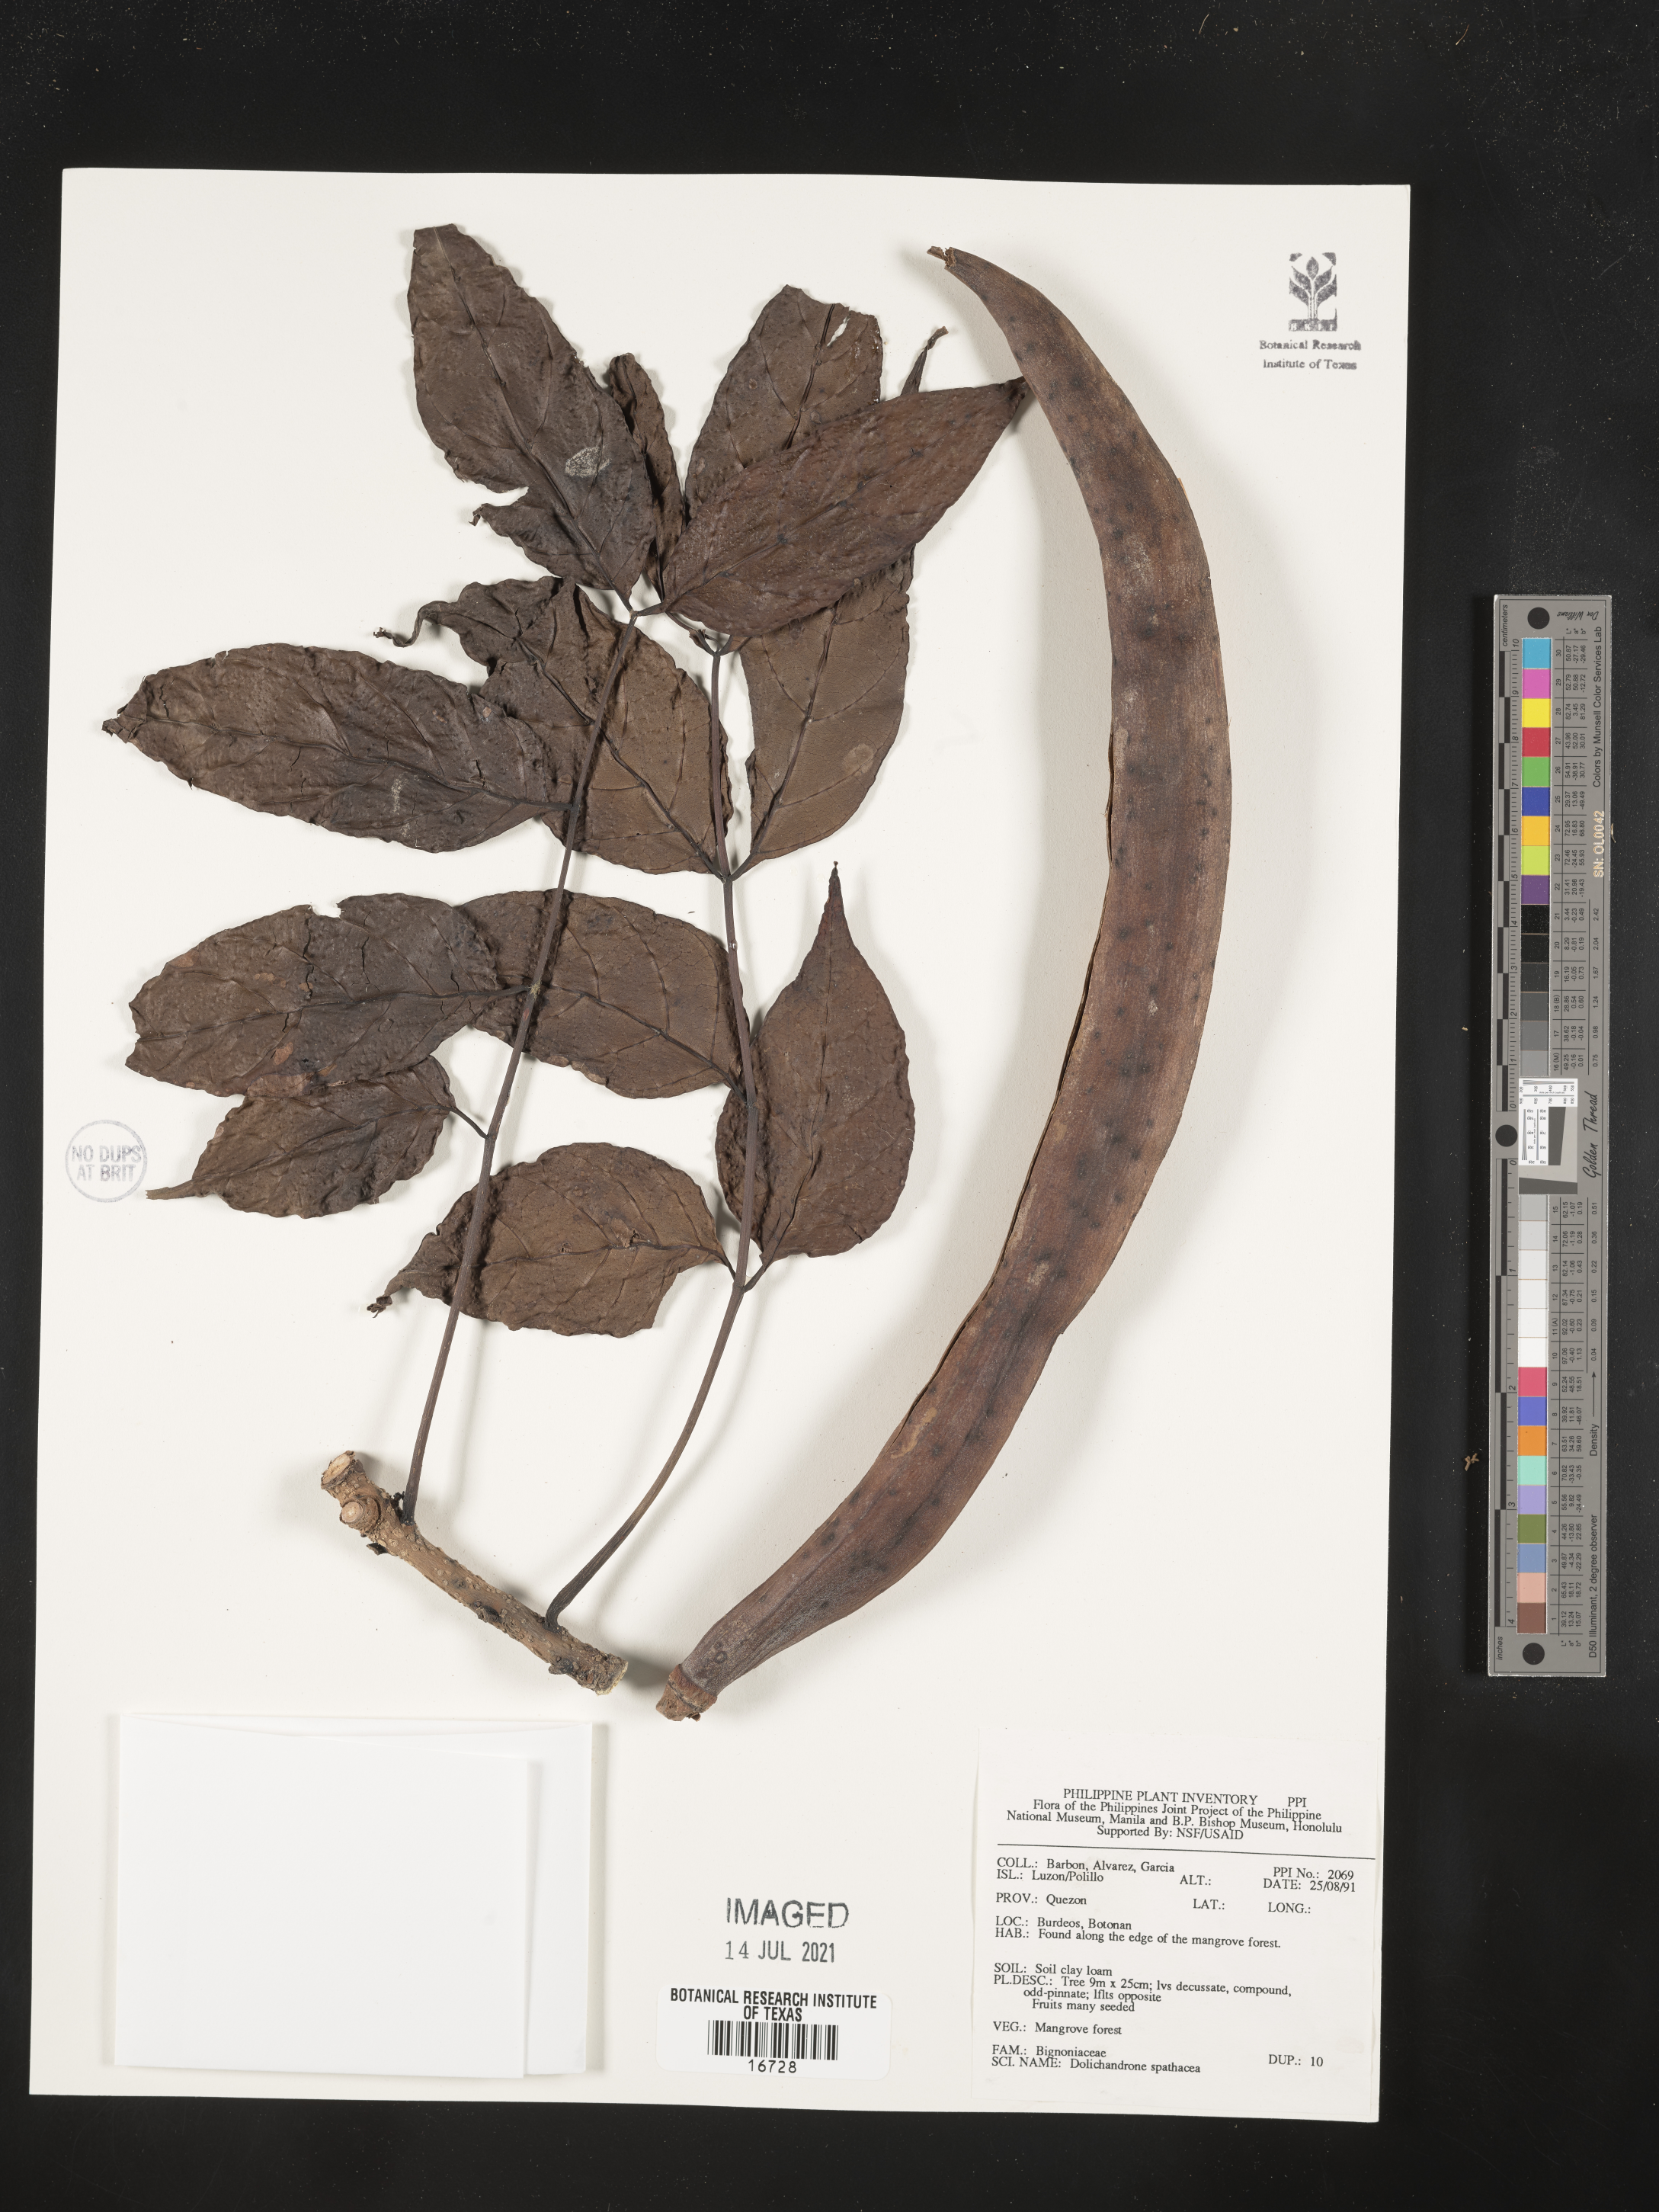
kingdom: Plantae
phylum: Tracheophyta
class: Magnoliopsida
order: Lamiales
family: Bignoniaceae
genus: Dolichandrone
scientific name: Dolichandrone spathacea
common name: Mangrove trumpet-tree
